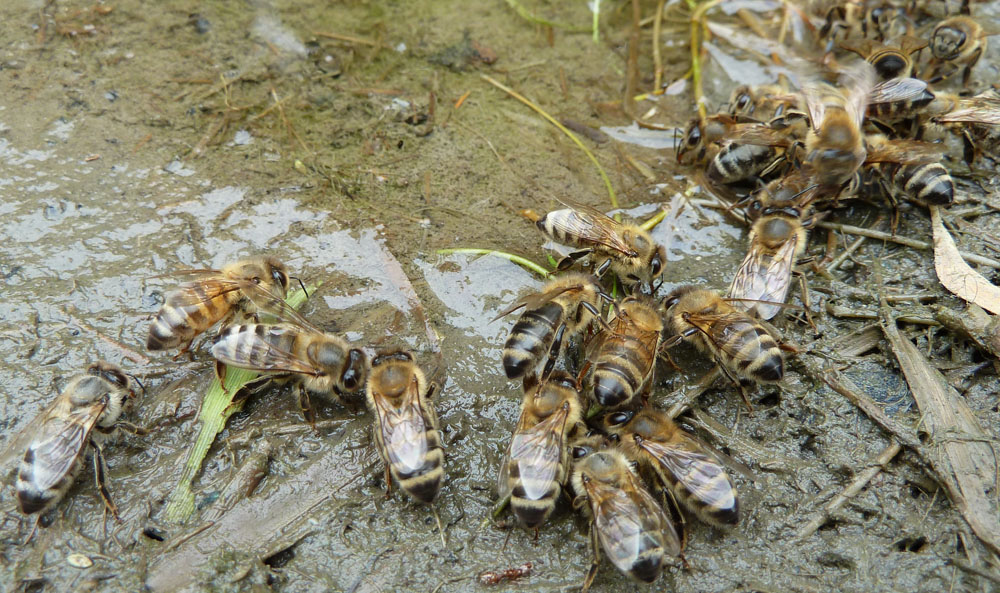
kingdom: Animalia
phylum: Arthropoda
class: Insecta
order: Hymenoptera
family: Apidae
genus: Apis
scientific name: Apis mellifera
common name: Honey bee
